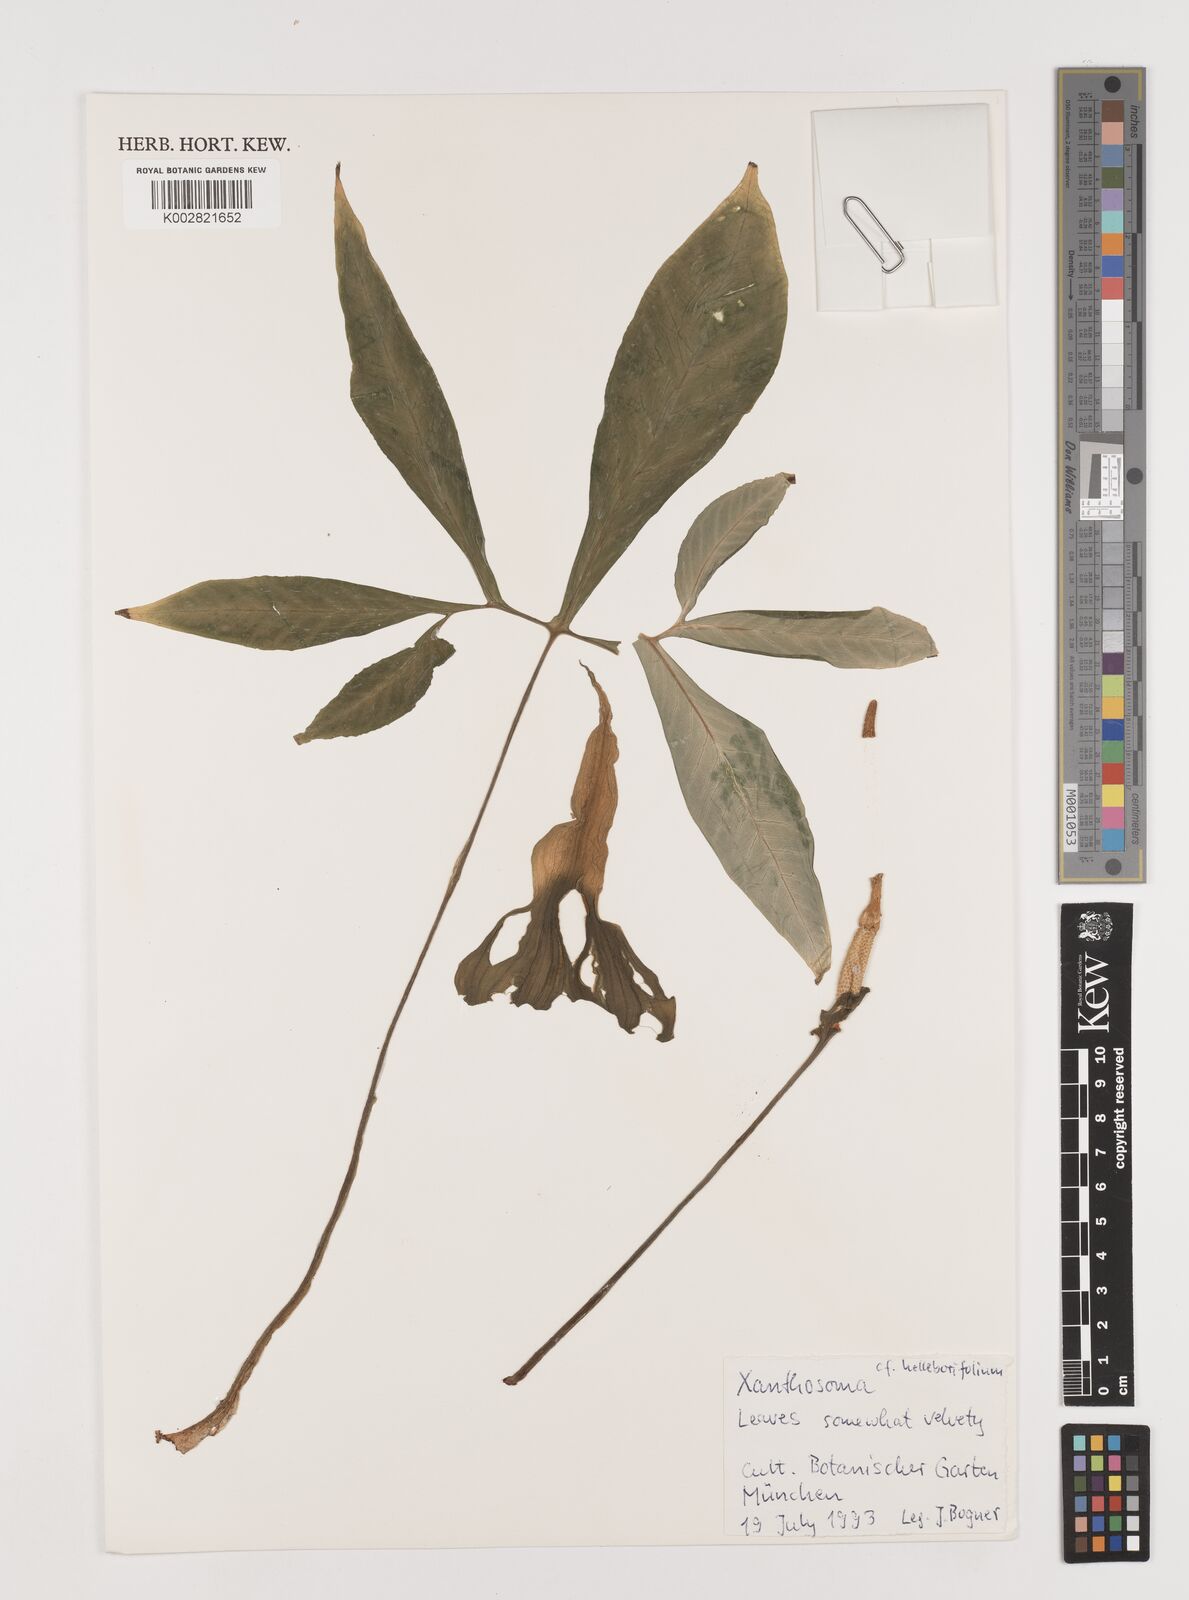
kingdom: Plantae
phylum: Tracheophyta
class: Liliopsida
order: Alismatales
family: Araceae
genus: Xanthosoma
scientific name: Xanthosoma
